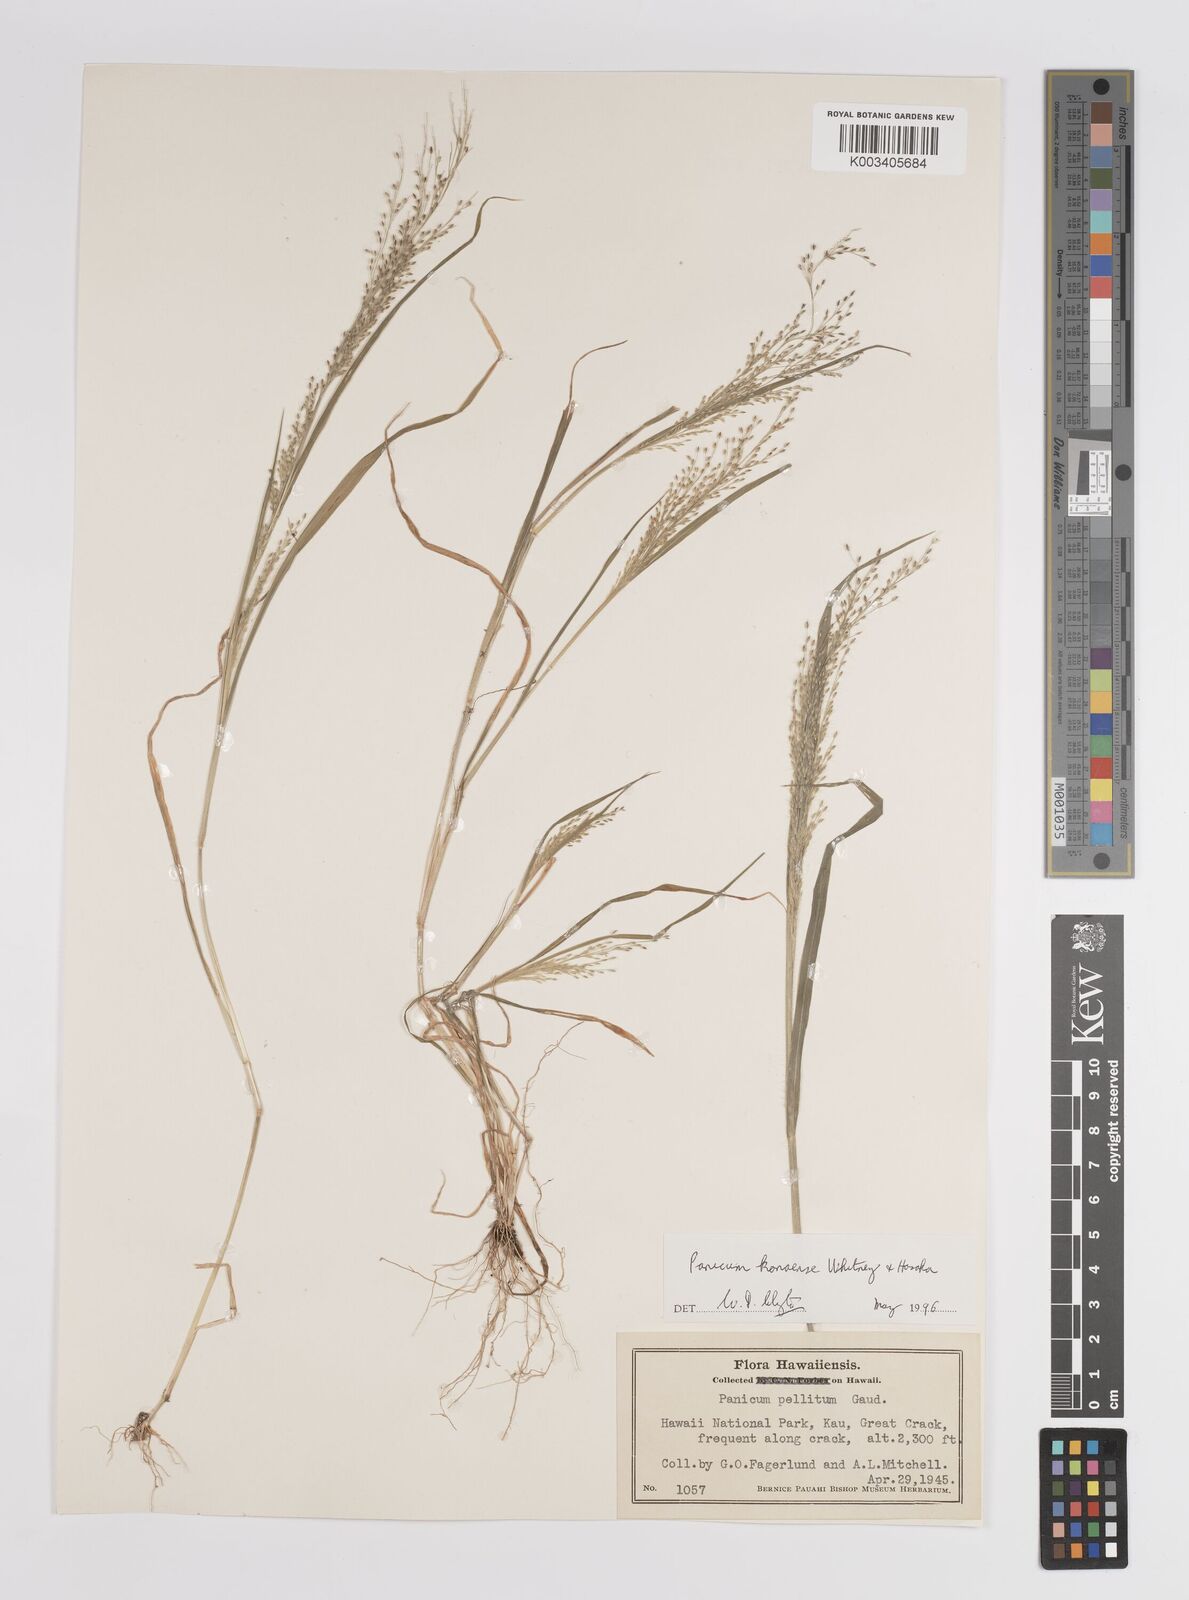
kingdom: Plantae
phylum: Tracheophyta
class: Liliopsida
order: Poales
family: Poaceae
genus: Panicum
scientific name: Panicum konaense
